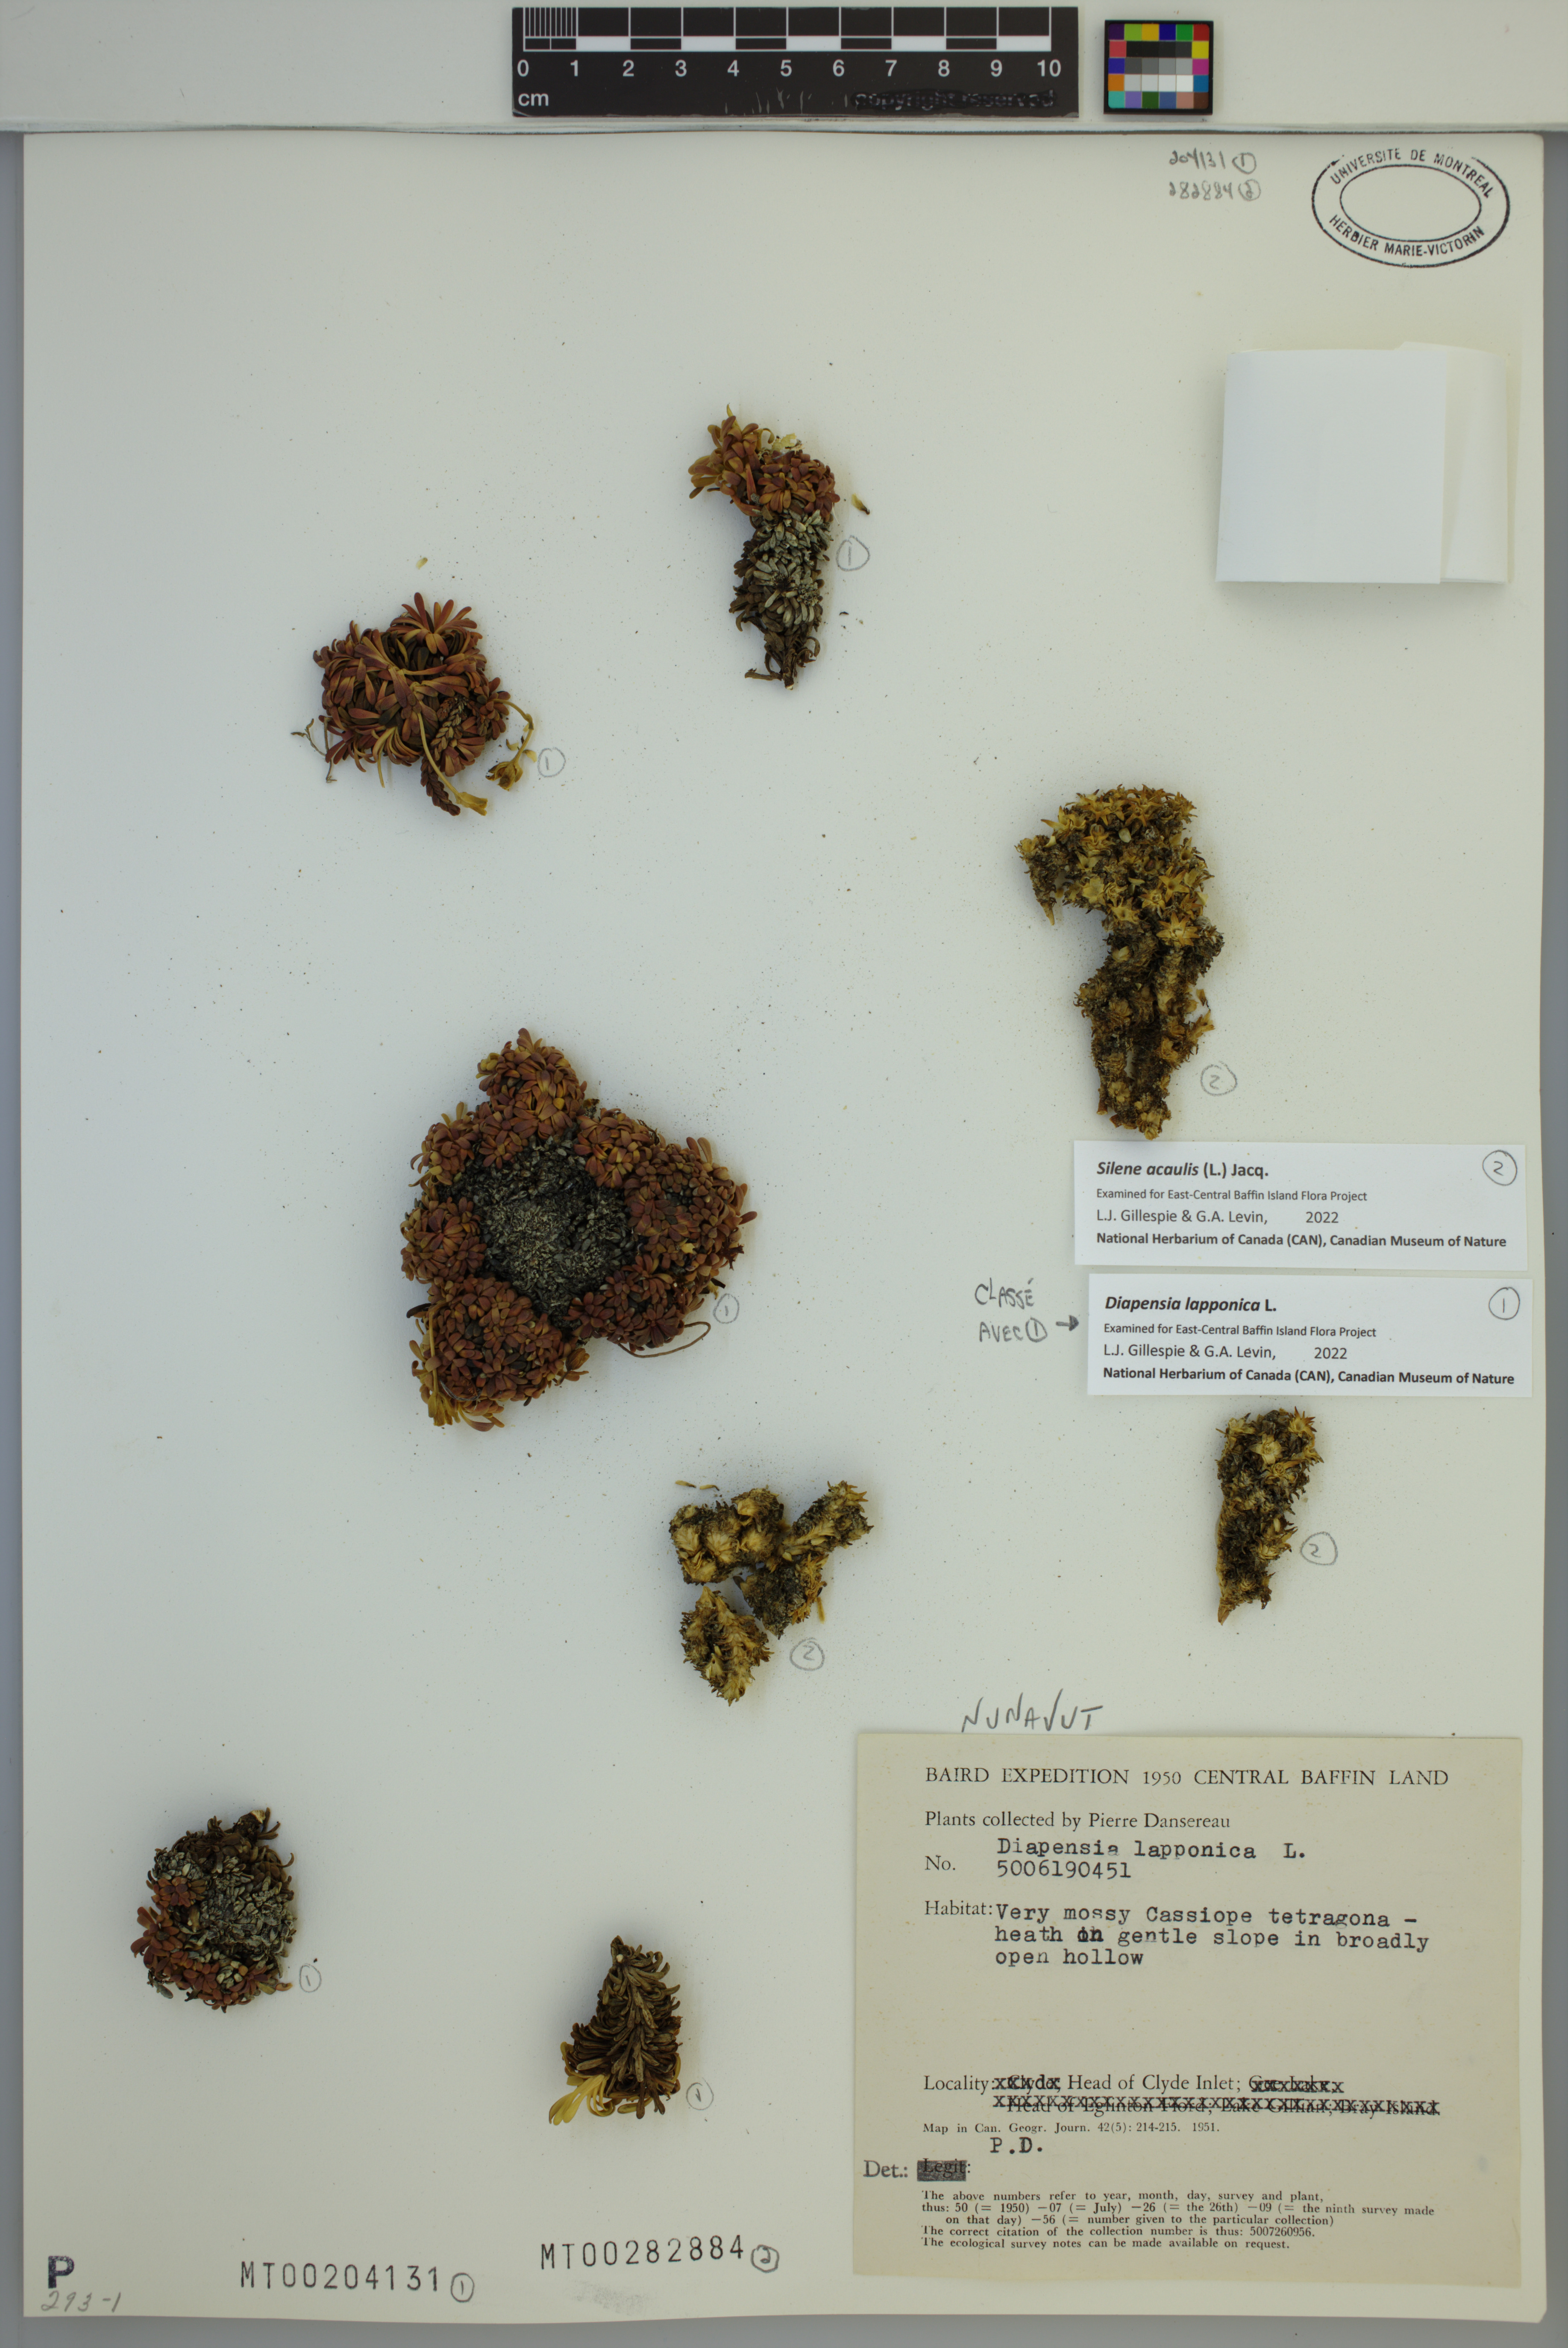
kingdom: Plantae
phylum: Tracheophyta
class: Magnoliopsida
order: Caryophyllales
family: Caryophyllaceae
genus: Silene
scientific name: Silene acaulis
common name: Moss campion
